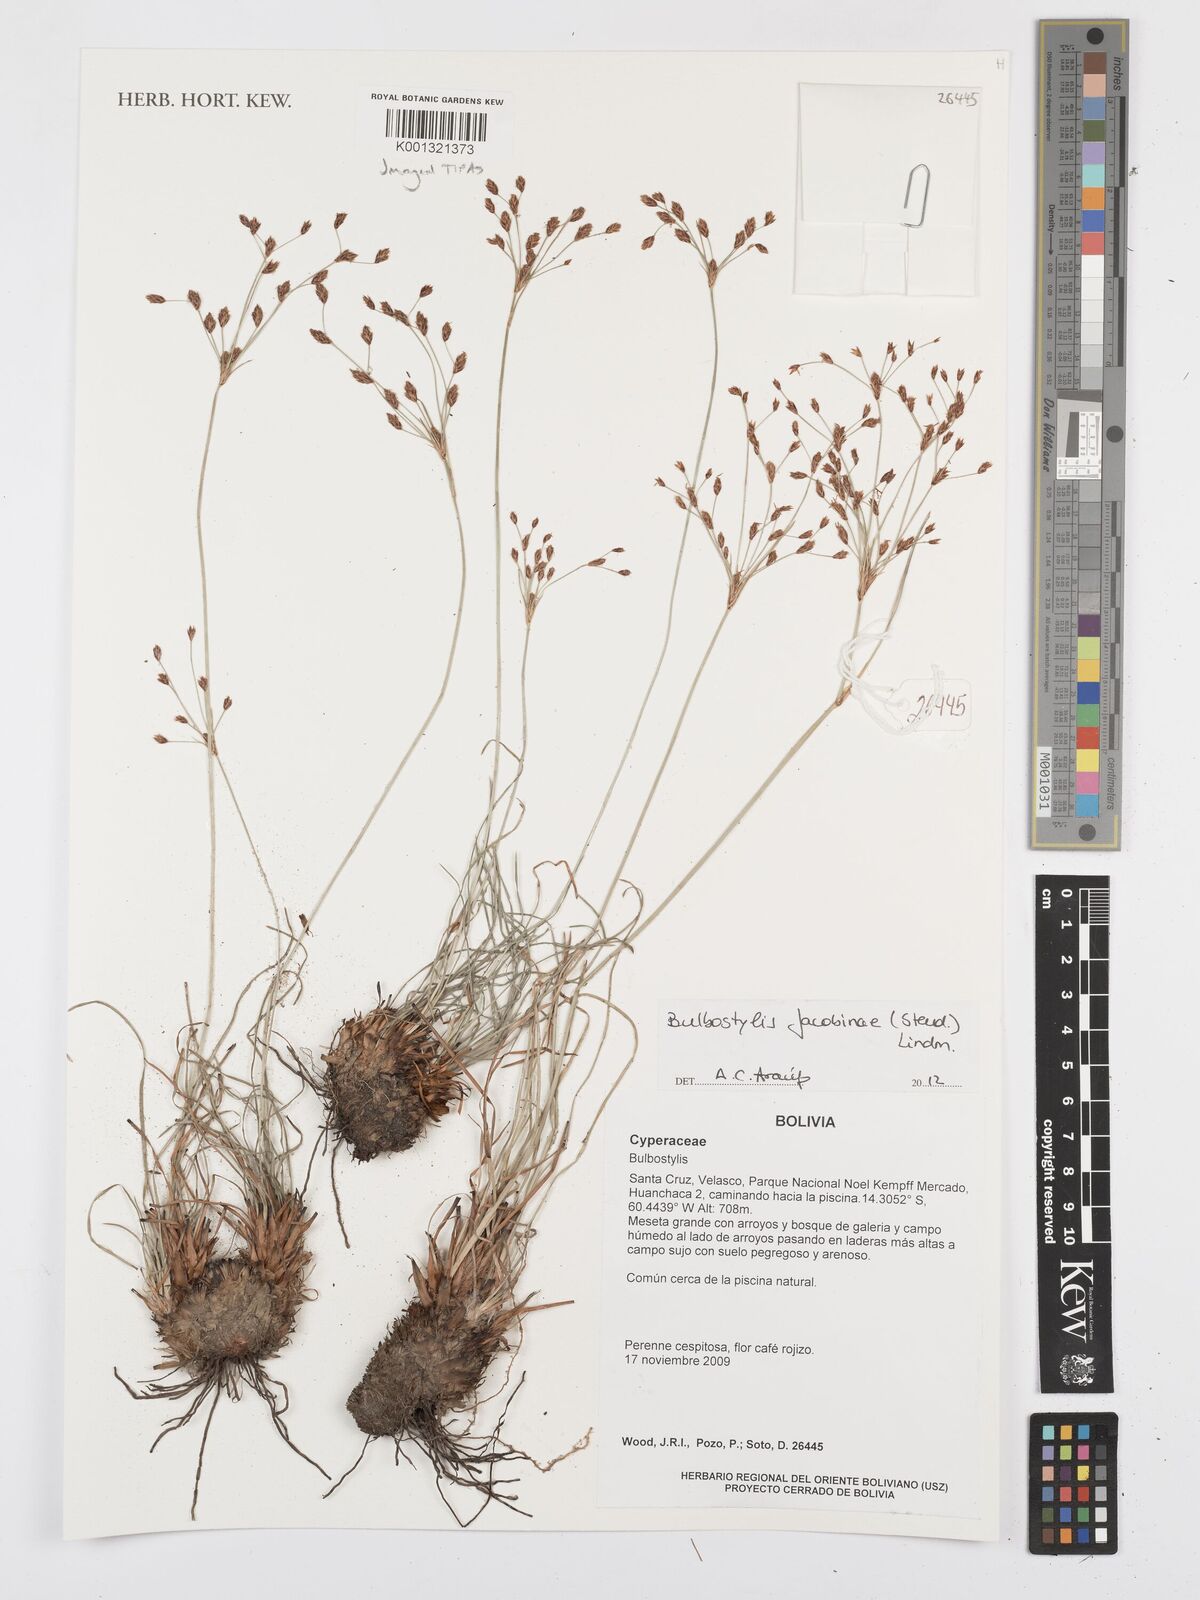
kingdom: Plantae
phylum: Tracheophyta
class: Liliopsida
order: Poales
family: Cyperaceae
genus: Bulbostylis
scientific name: Bulbostylis jacobinae
